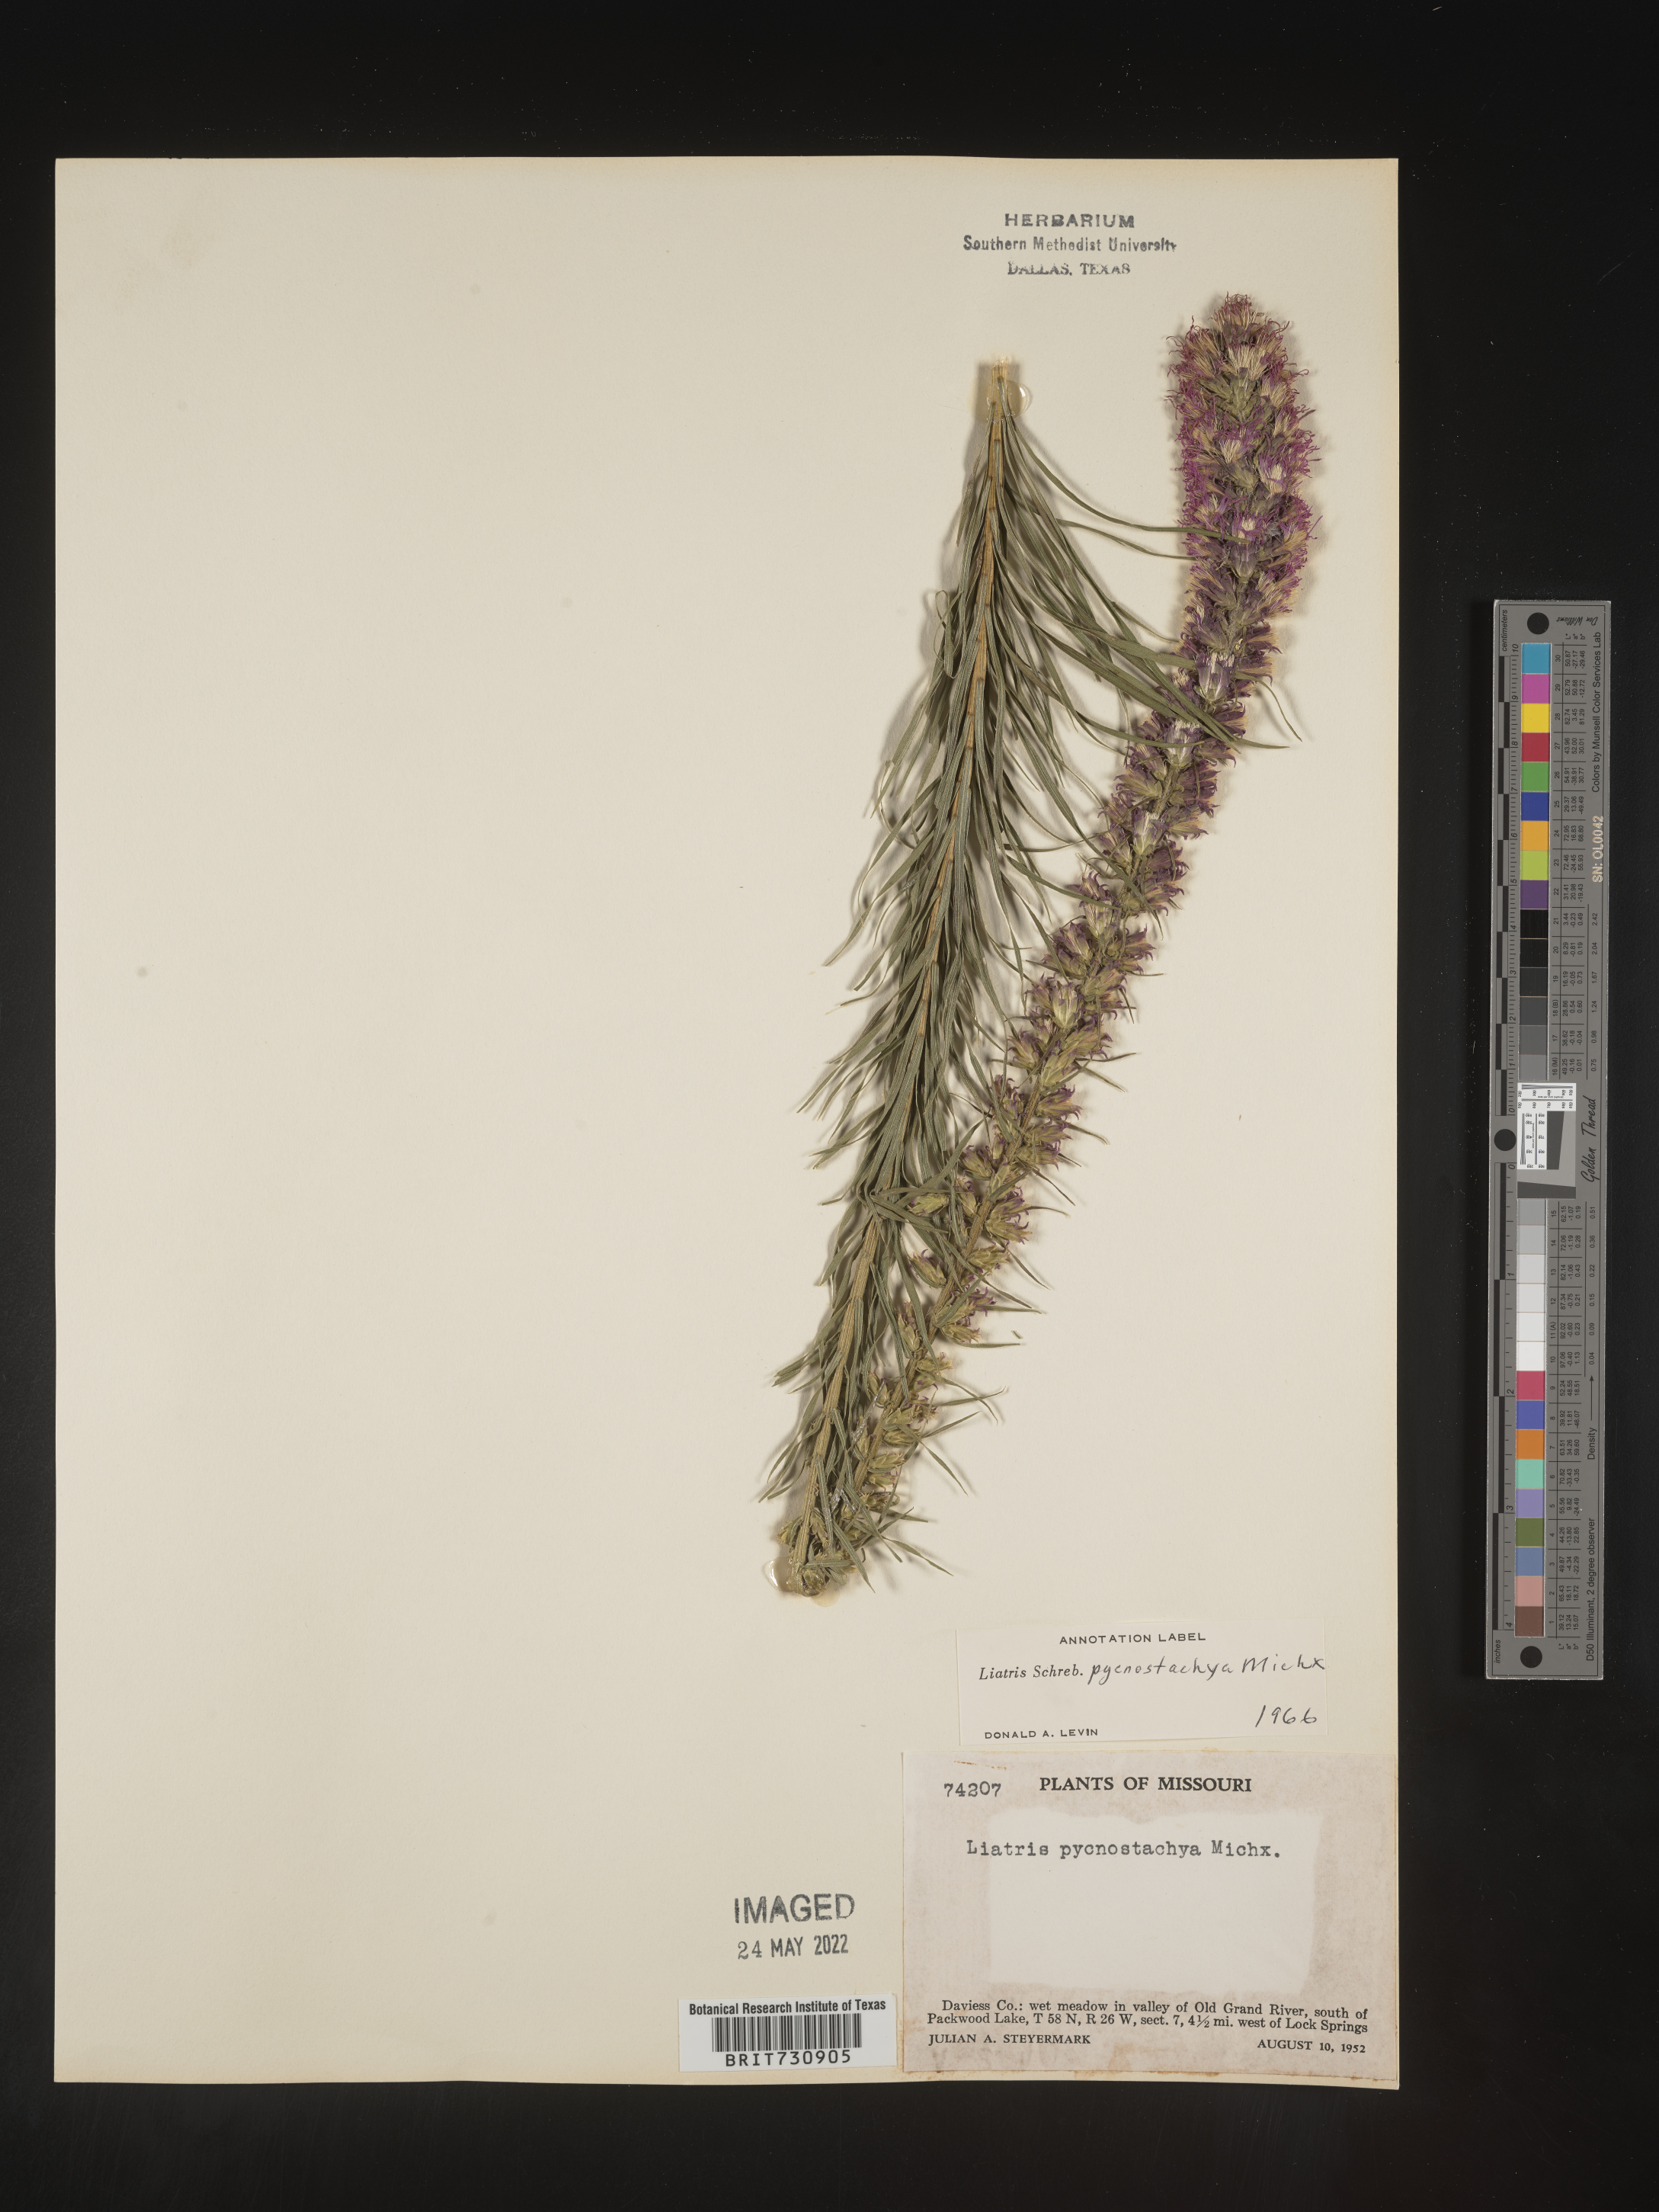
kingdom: Plantae
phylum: Tracheophyta
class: Magnoliopsida
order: Asterales
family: Asteraceae
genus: Liatris
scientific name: Liatris pycnostachya
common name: Cattail gayfeather
